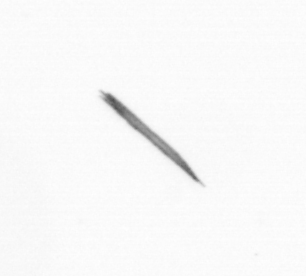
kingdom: Bacteria
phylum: Cyanobacteria
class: Cyanobacteriia
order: Cyanobacteriales
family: Microcoleaceae
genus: Trichodesmium
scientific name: Trichodesmium
